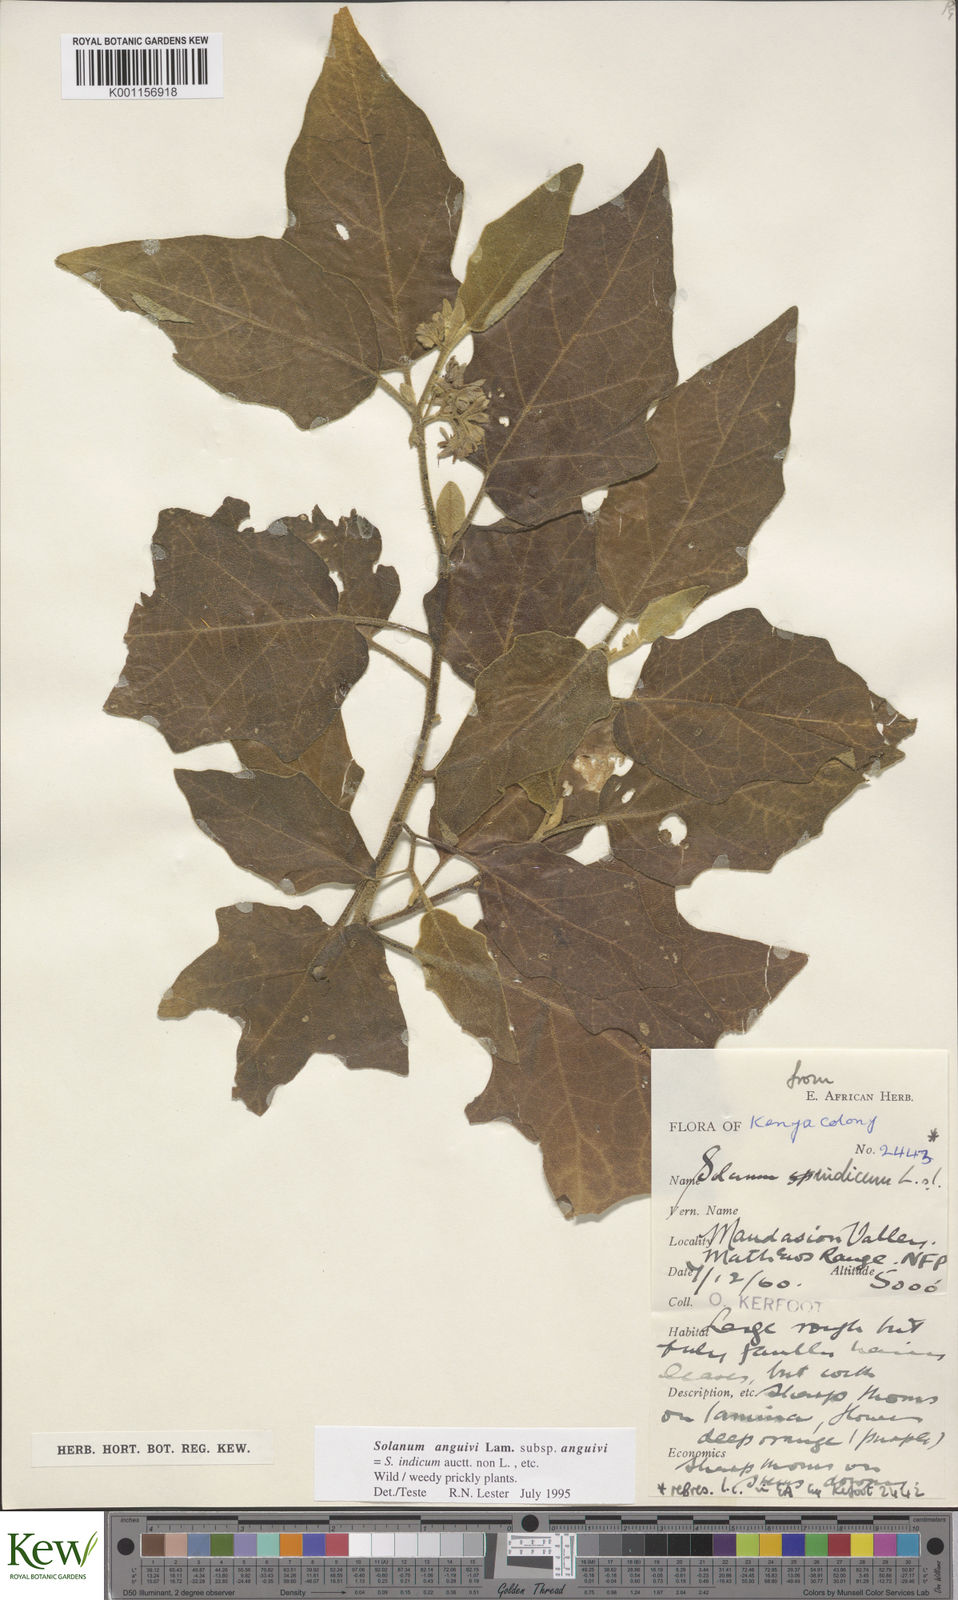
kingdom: Plantae
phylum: Tracheophyta
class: Magnoliopsida
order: Solanales
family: Solanaceae
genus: Solanum
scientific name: Solanum anguivi
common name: Forest bitterberry
